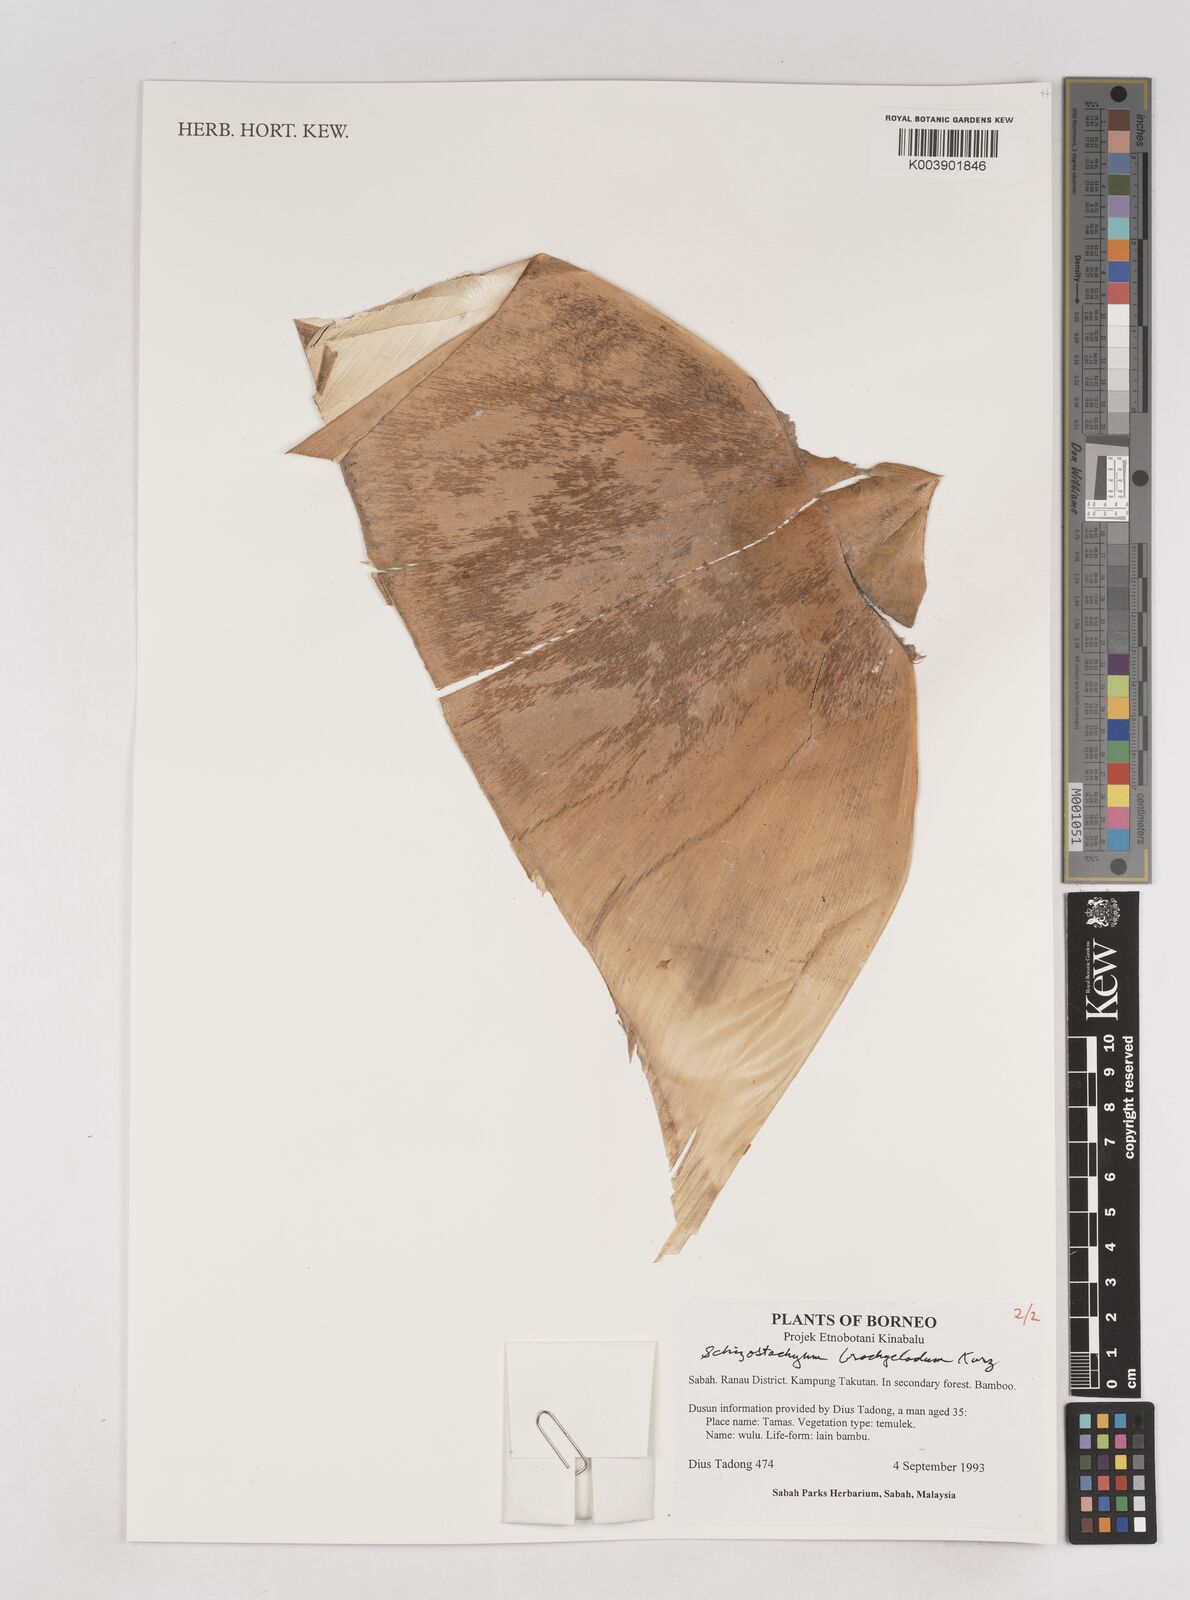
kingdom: Plantae
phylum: Tracheophyta
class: Liliopsida
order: Poales
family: Poaceae
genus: Schizostachyum
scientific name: Schizostachyum brachycladum
